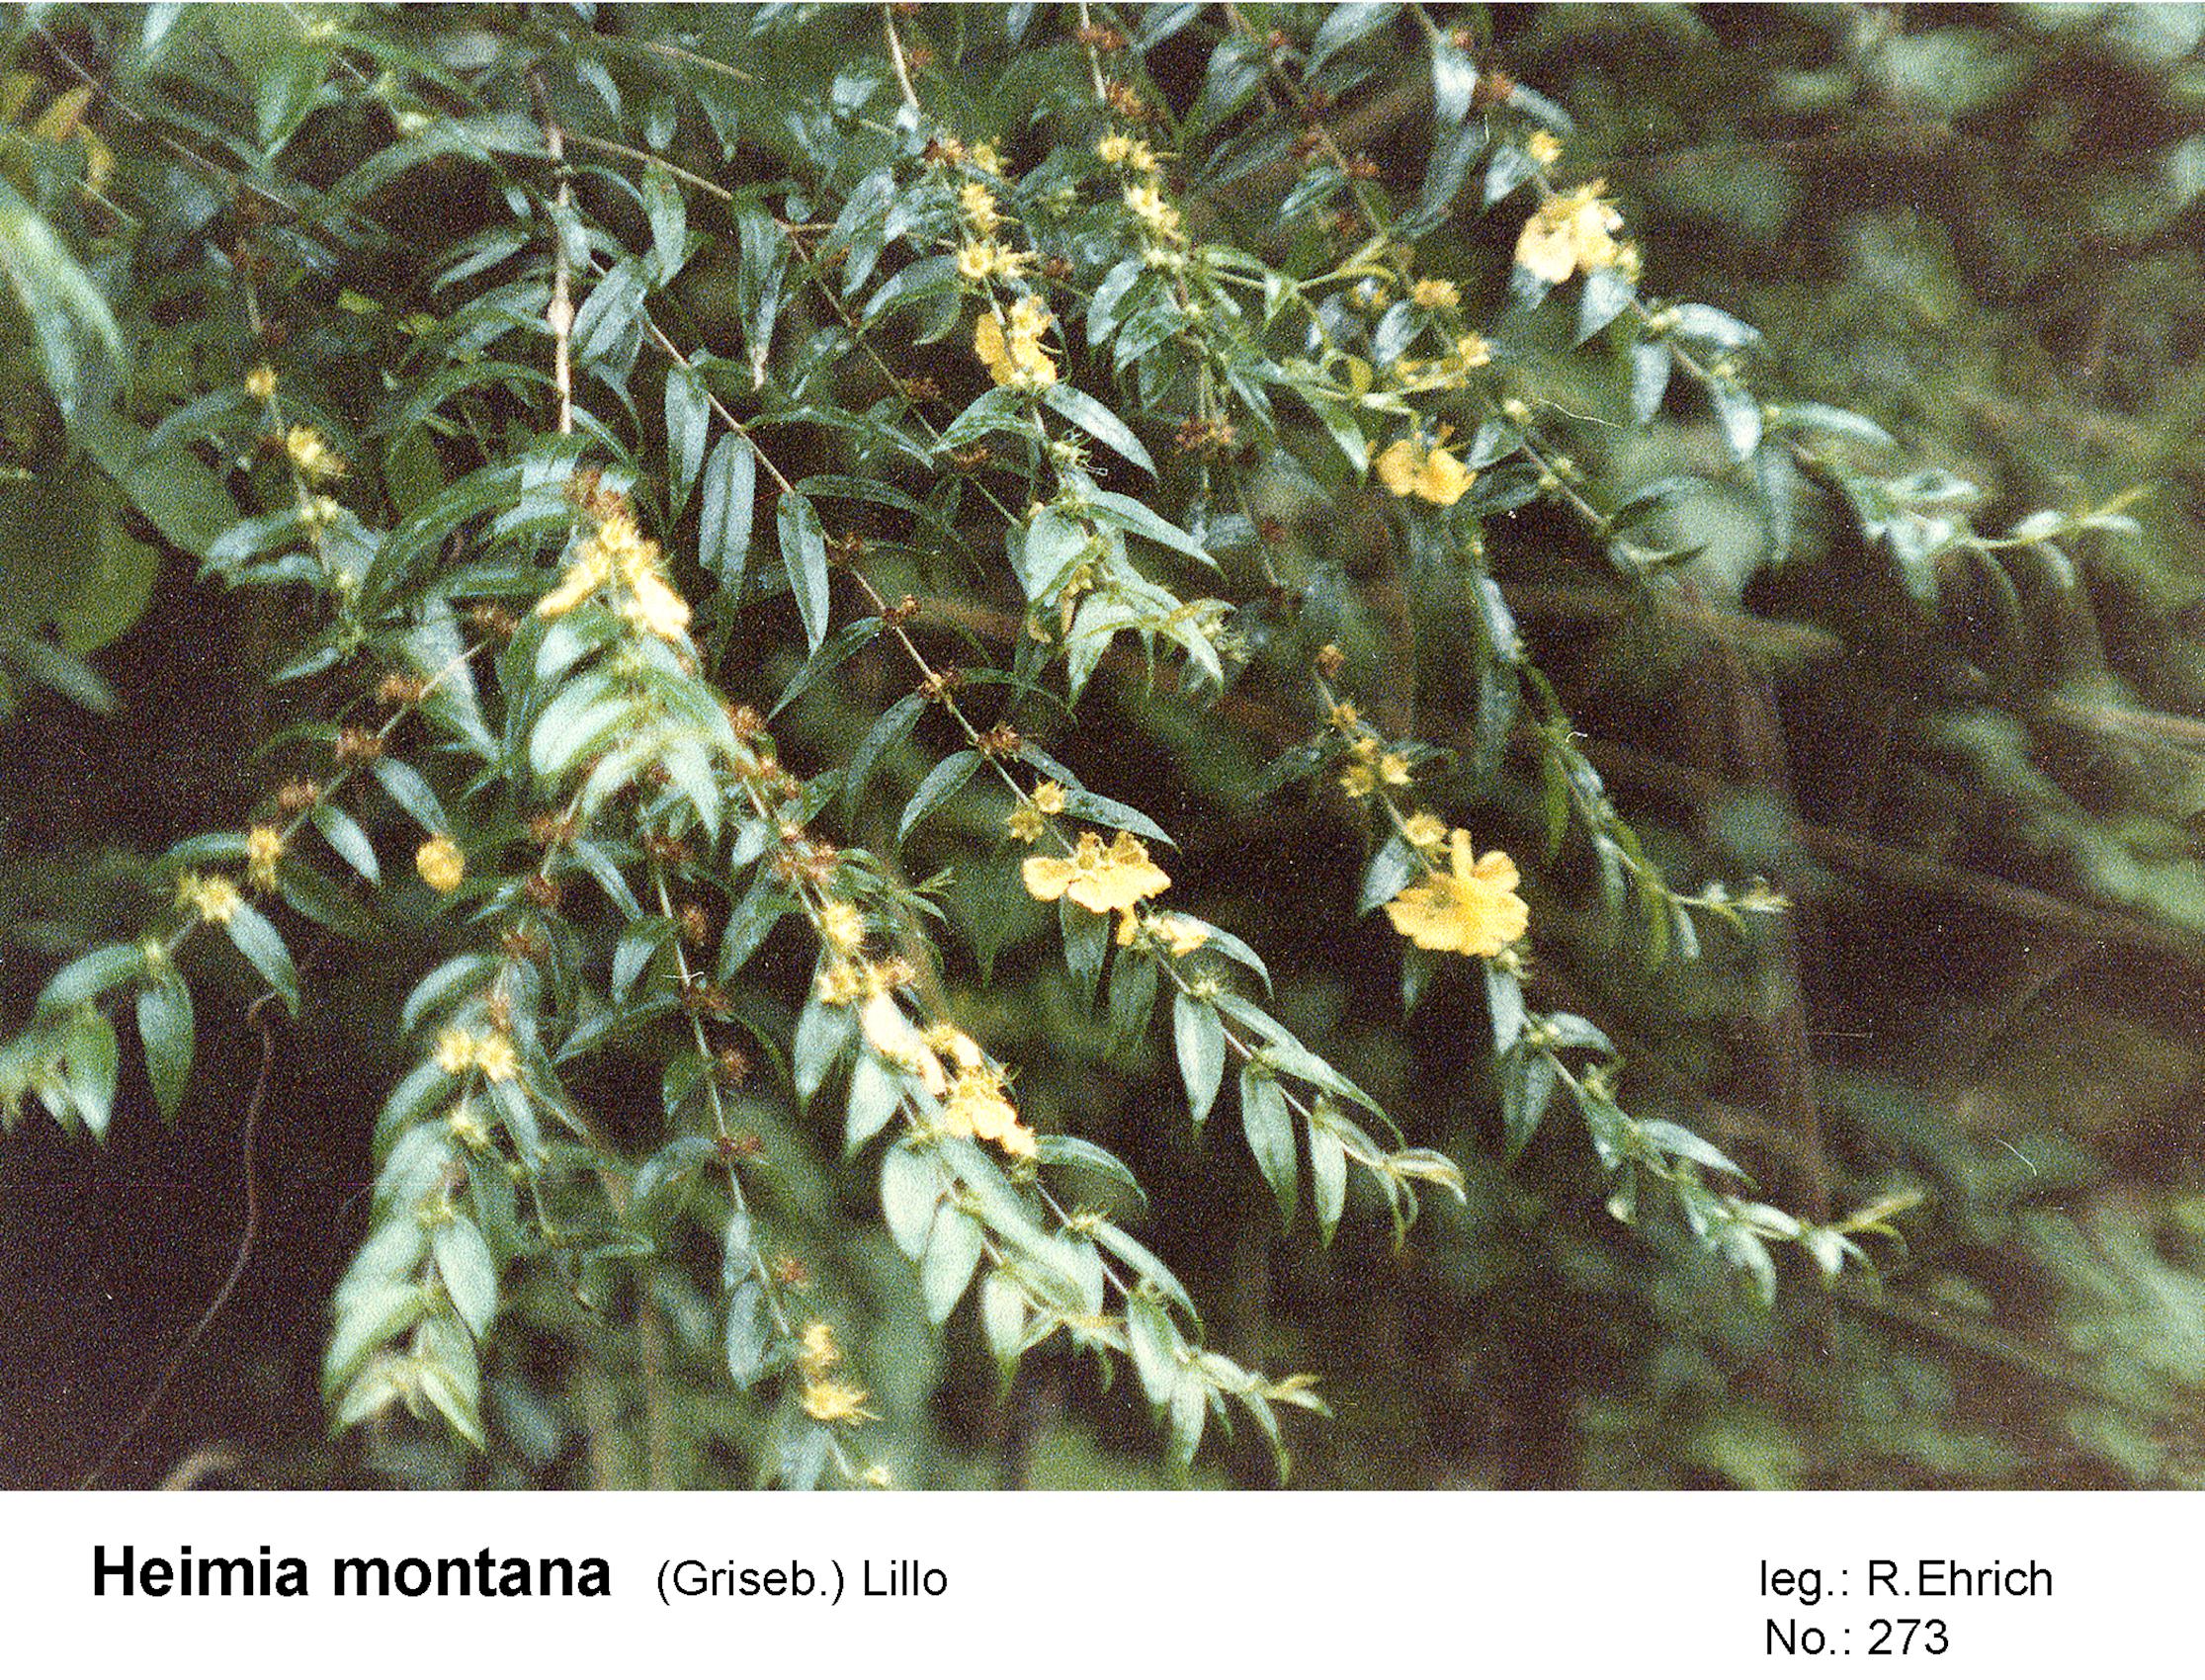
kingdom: Plantae
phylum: Tracheophyta
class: Magnoliopsida
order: Myrtales
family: Lythraceae
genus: Heimia
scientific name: Heimia montana
